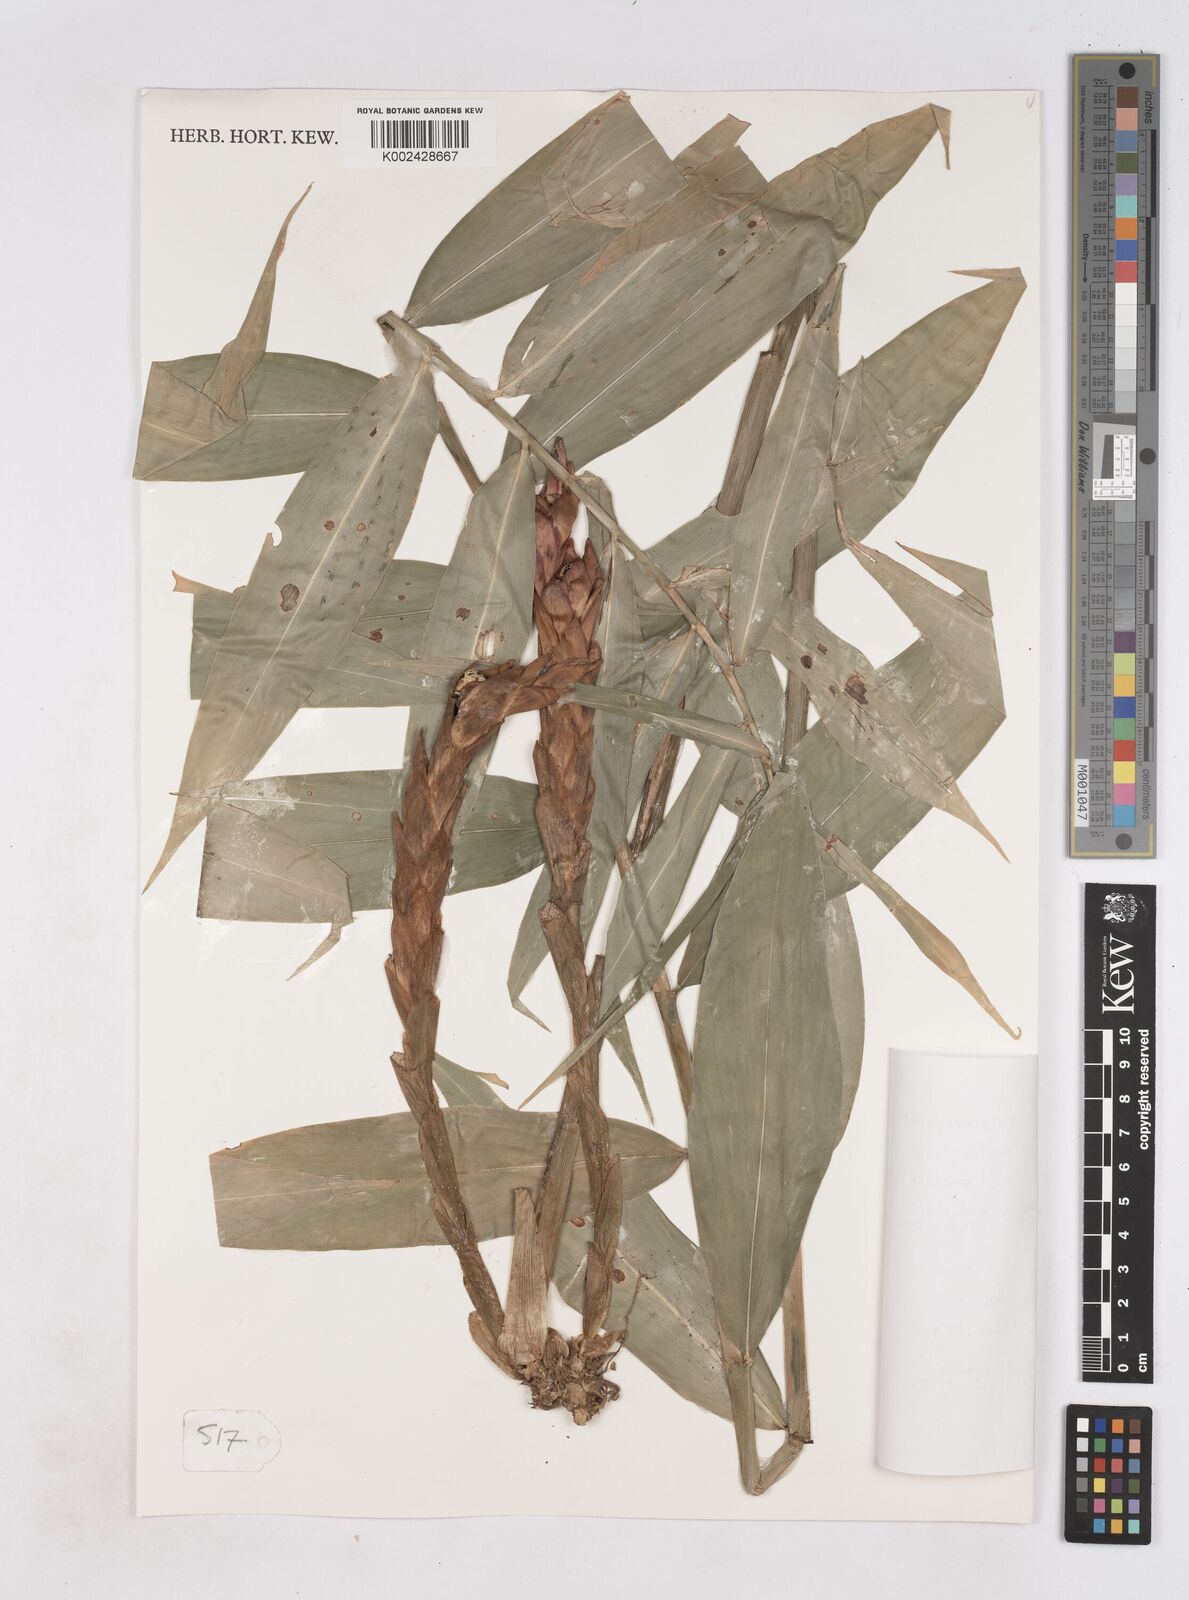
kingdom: Plantae
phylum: Tracheophyta
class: Liliopsida
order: Zingiberales
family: Zingiberaceae
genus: Zingiber
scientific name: Zingiber cylindricum
